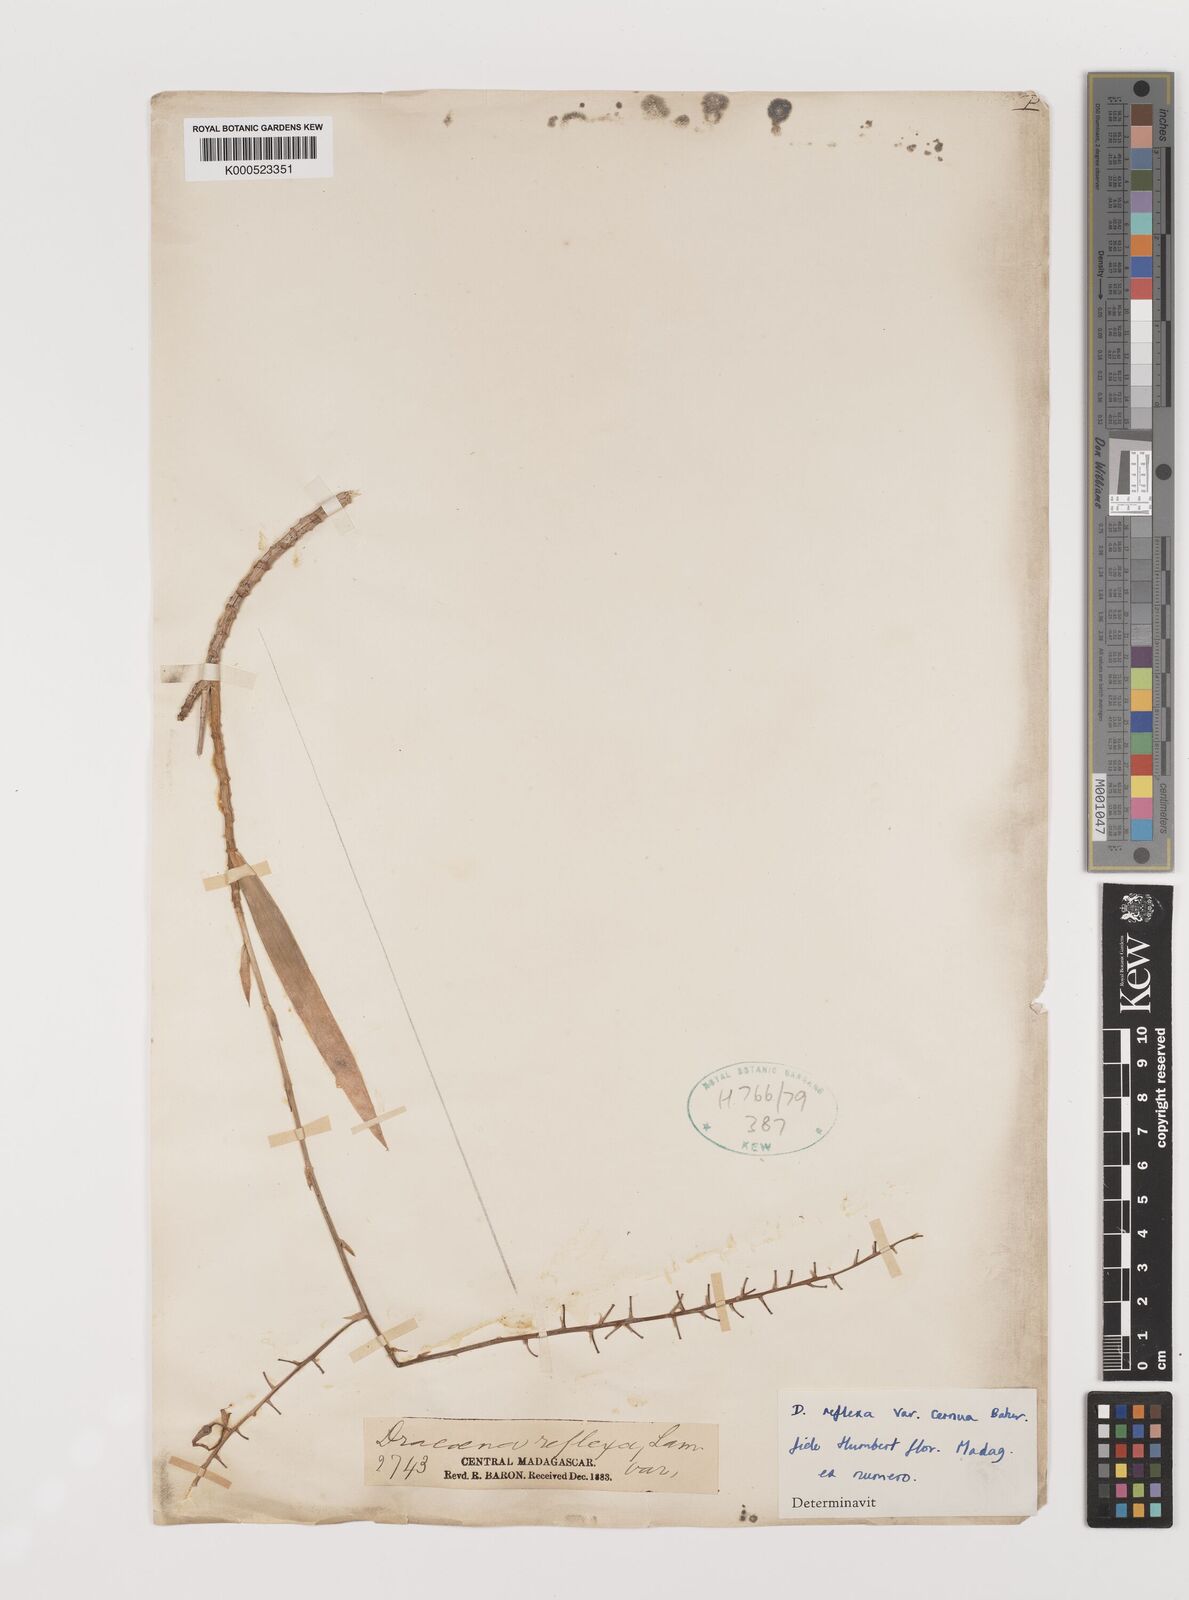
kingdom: Plantae
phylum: Tracheophyta
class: Liliopsida
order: Asparagales
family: Asparagaceae
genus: Dracaena
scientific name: Dracaena reflexa
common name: Song-of-india
